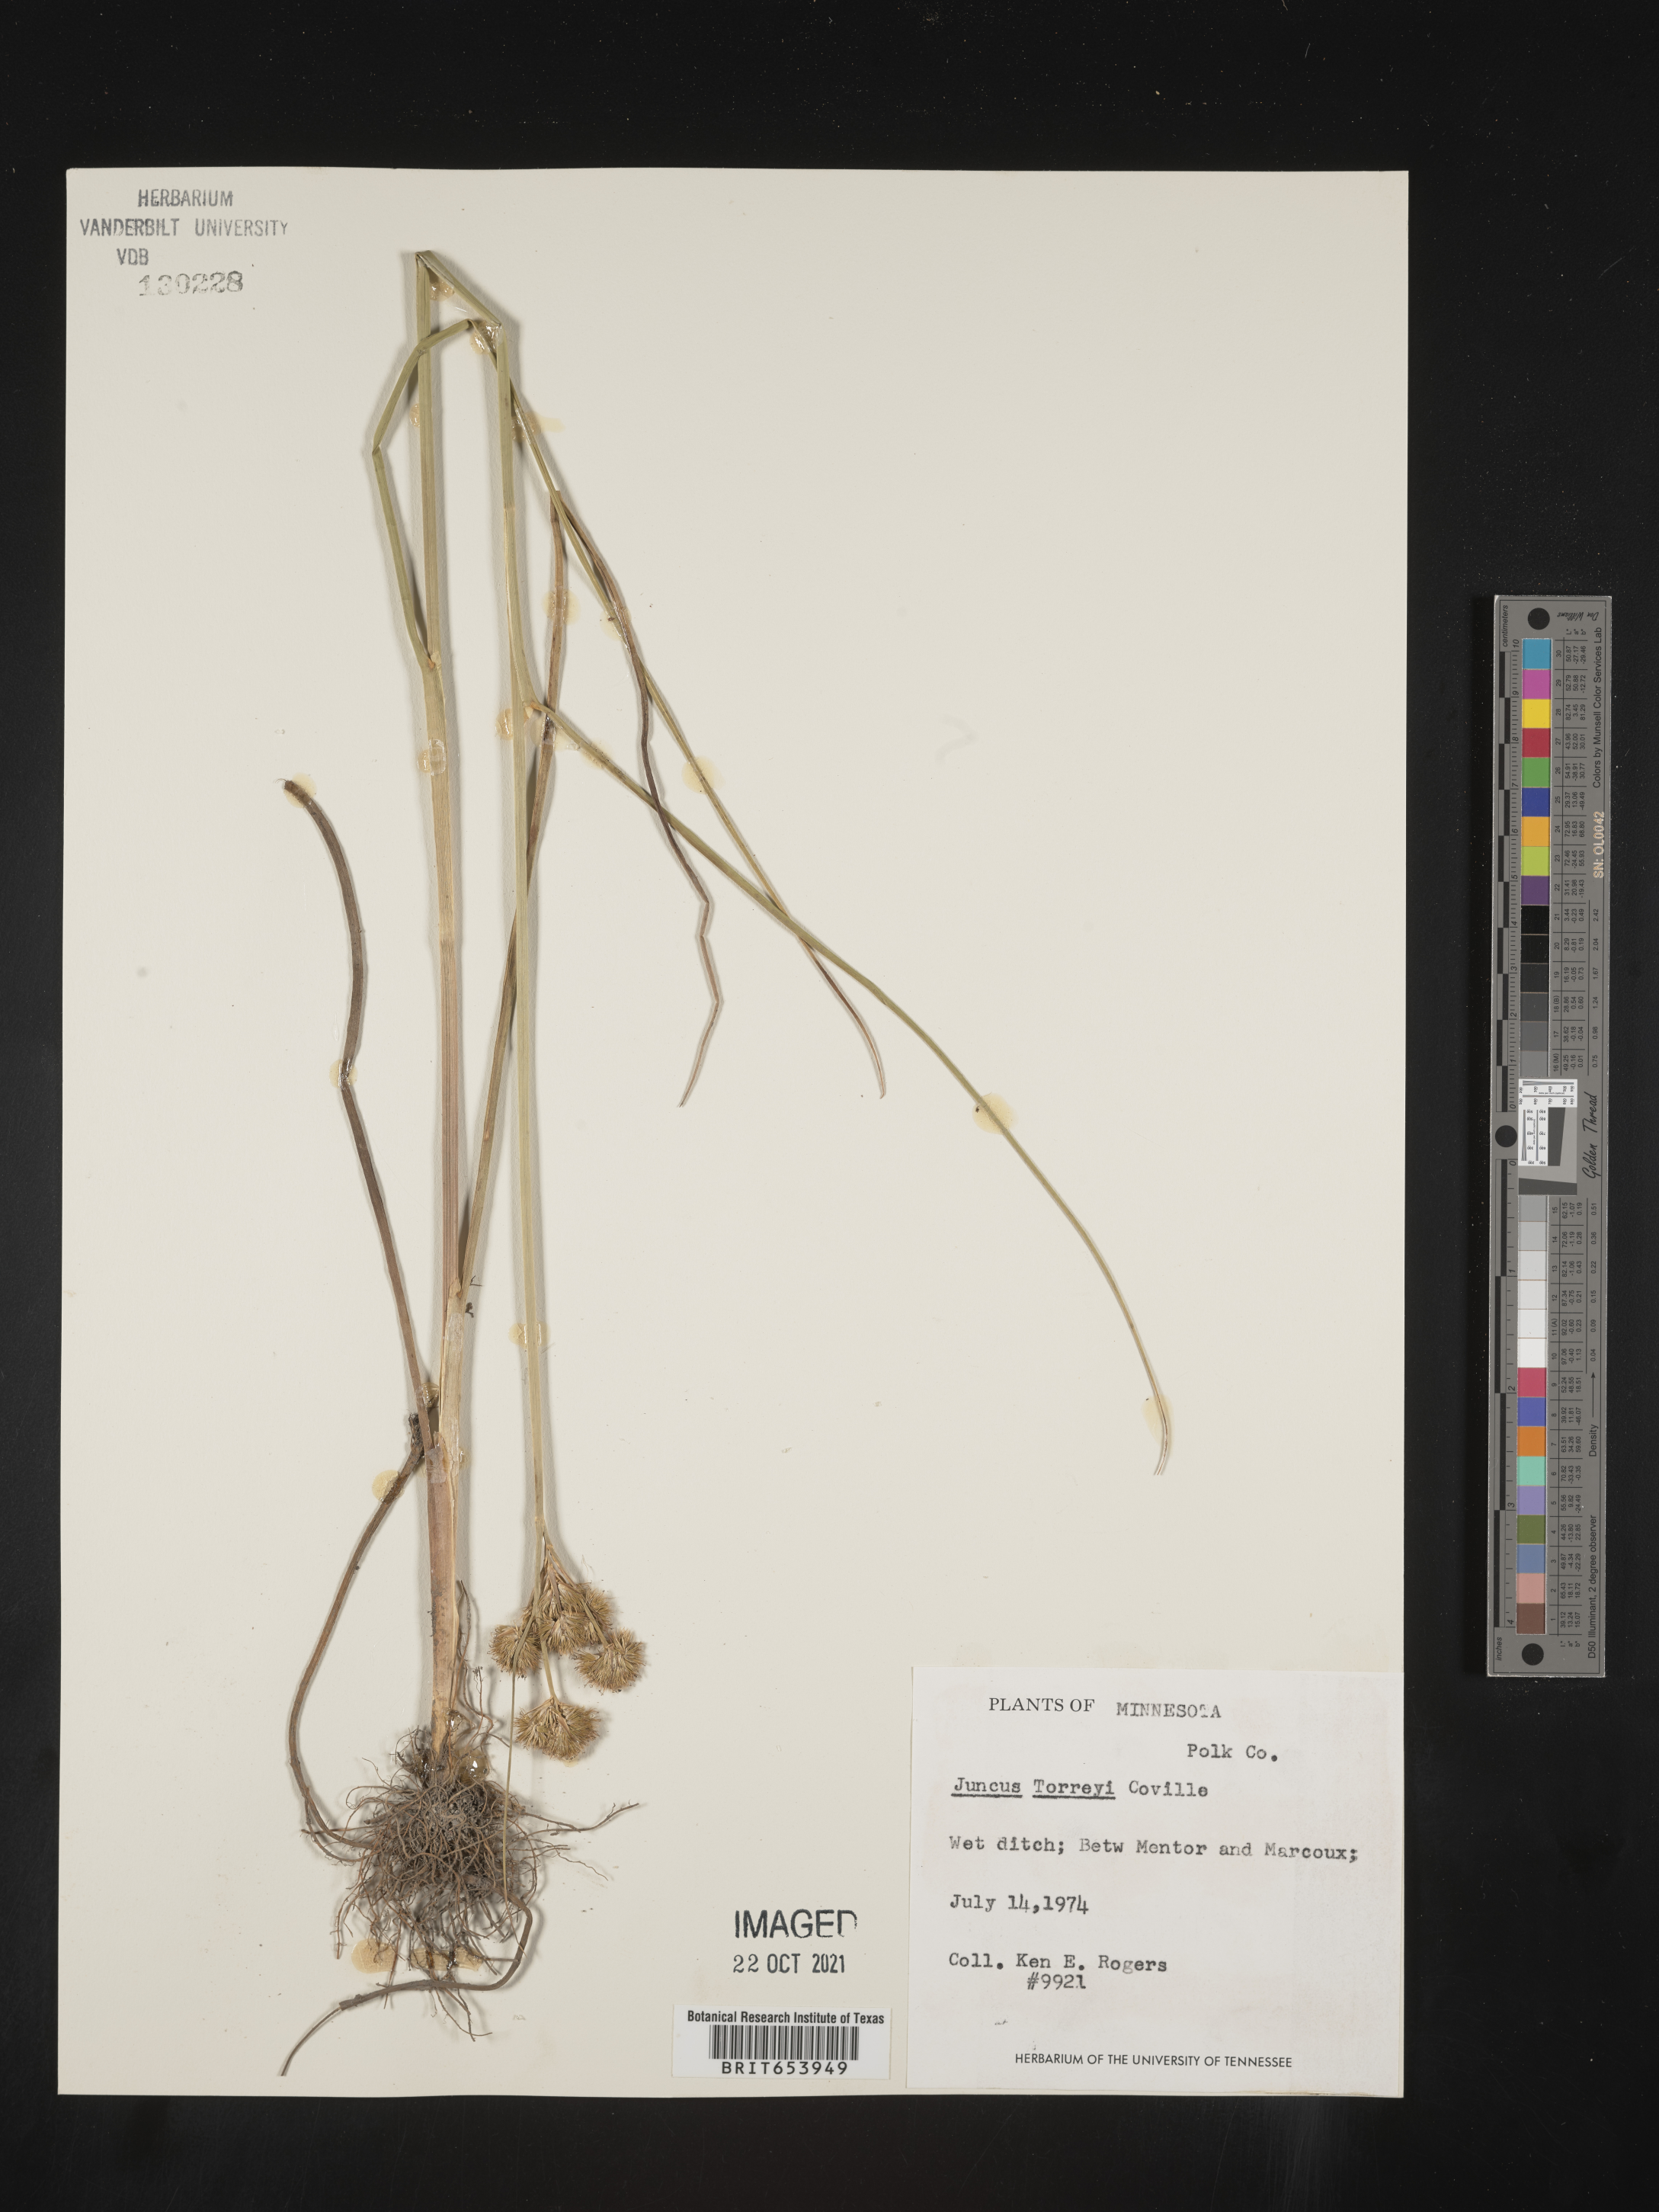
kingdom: Plantae
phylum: Tracheophyta
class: Liliopsida
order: Poales
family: Juncaceae
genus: Juncus
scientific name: Juncus torreyi
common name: Torrey's rush
